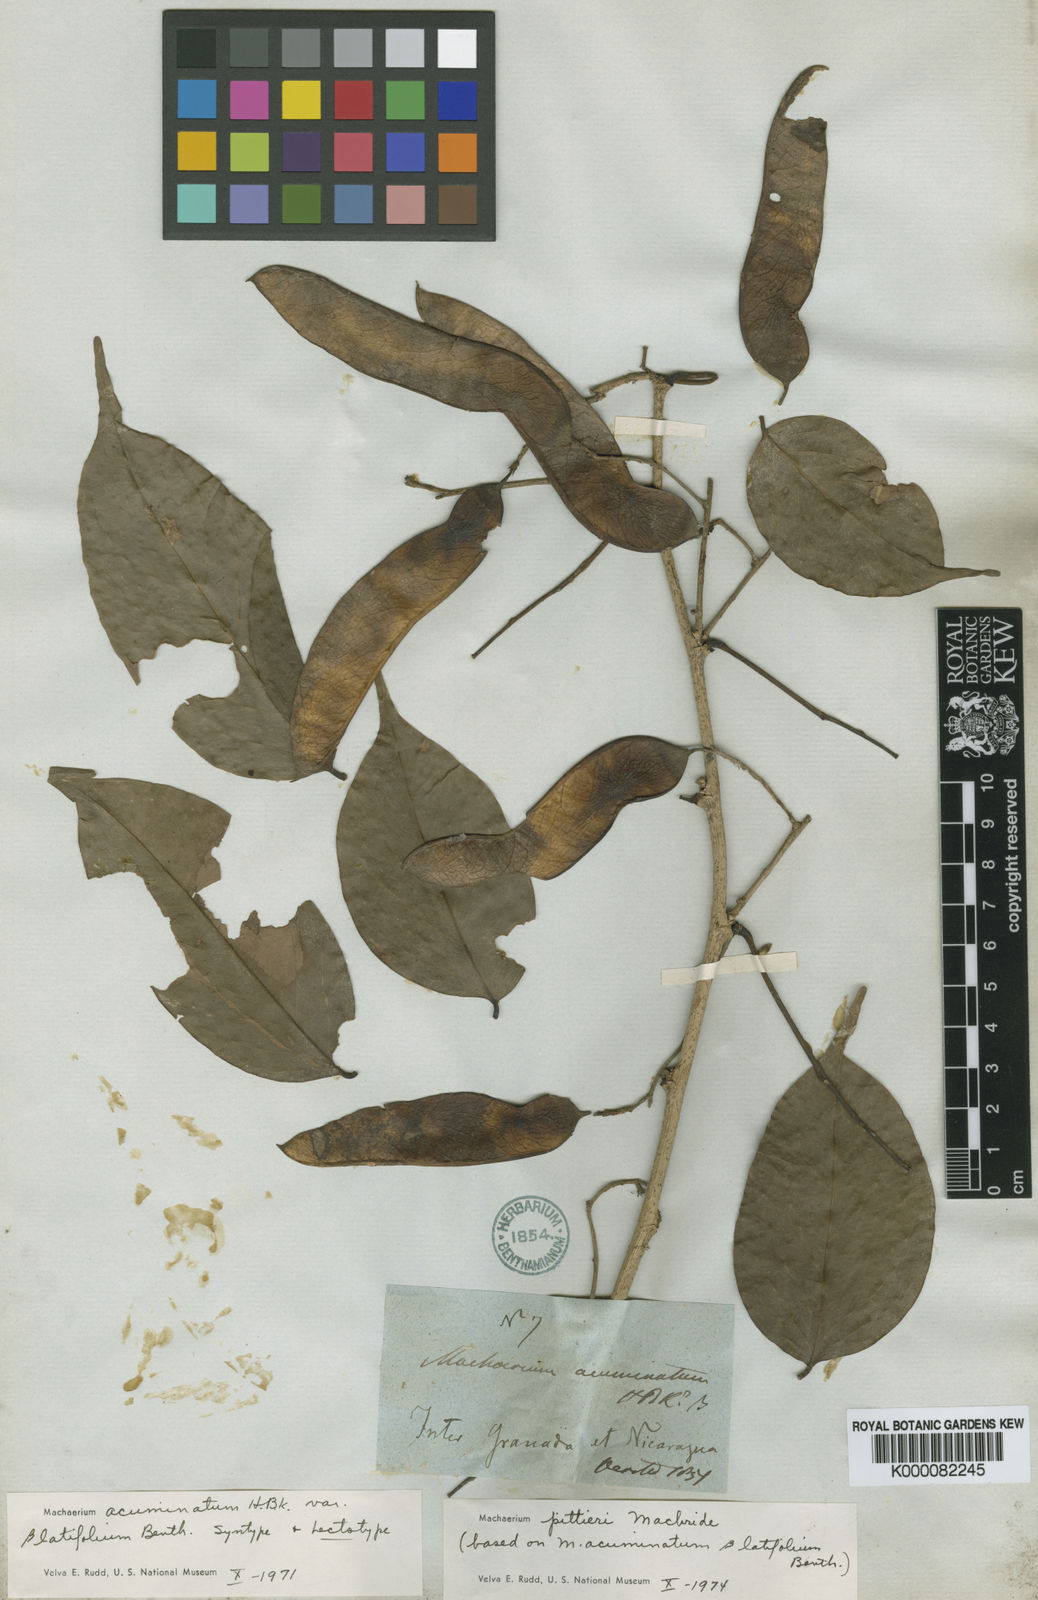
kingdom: Plantae
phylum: Tracheophyta
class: Magnoliopsida
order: Fabales
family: Fabaceae
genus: Machaerium
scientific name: Machaerium pittieri
